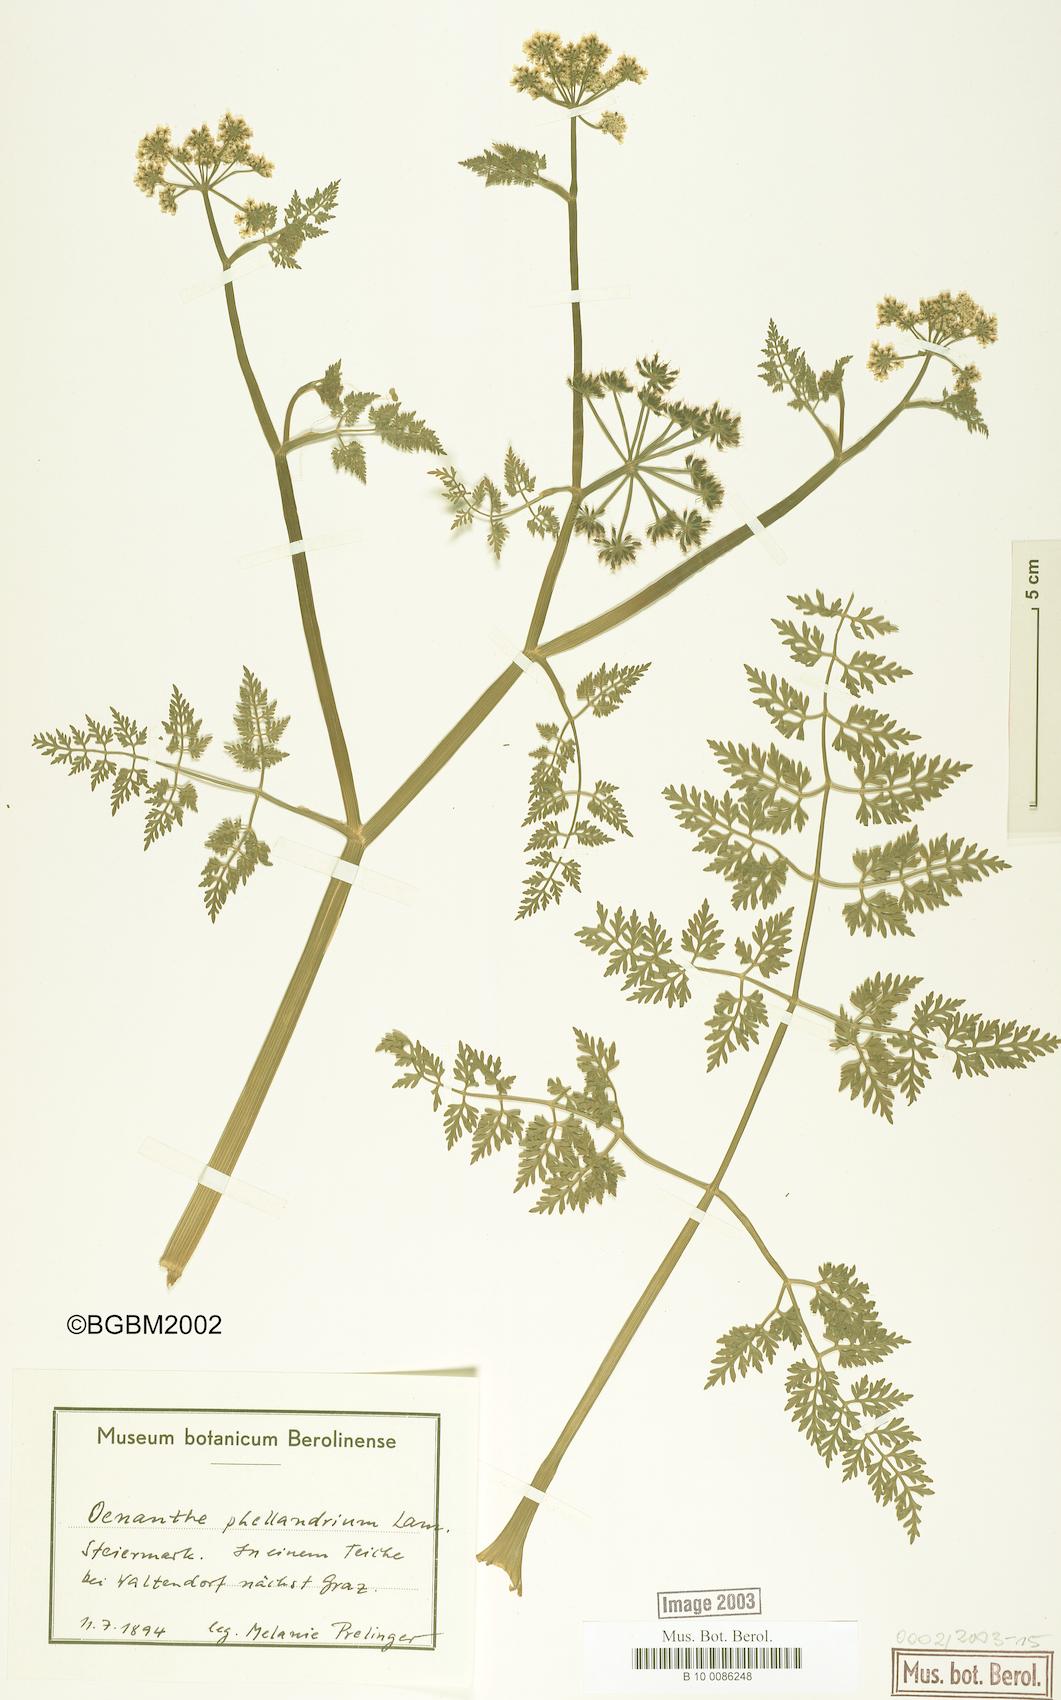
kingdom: Plantae
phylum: Tracheophyta
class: Magnoliopsida
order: Apiales
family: Apiaceae
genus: Oenanthe
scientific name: Oenanthe aquatica
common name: Fine-leaved water-dropwort
